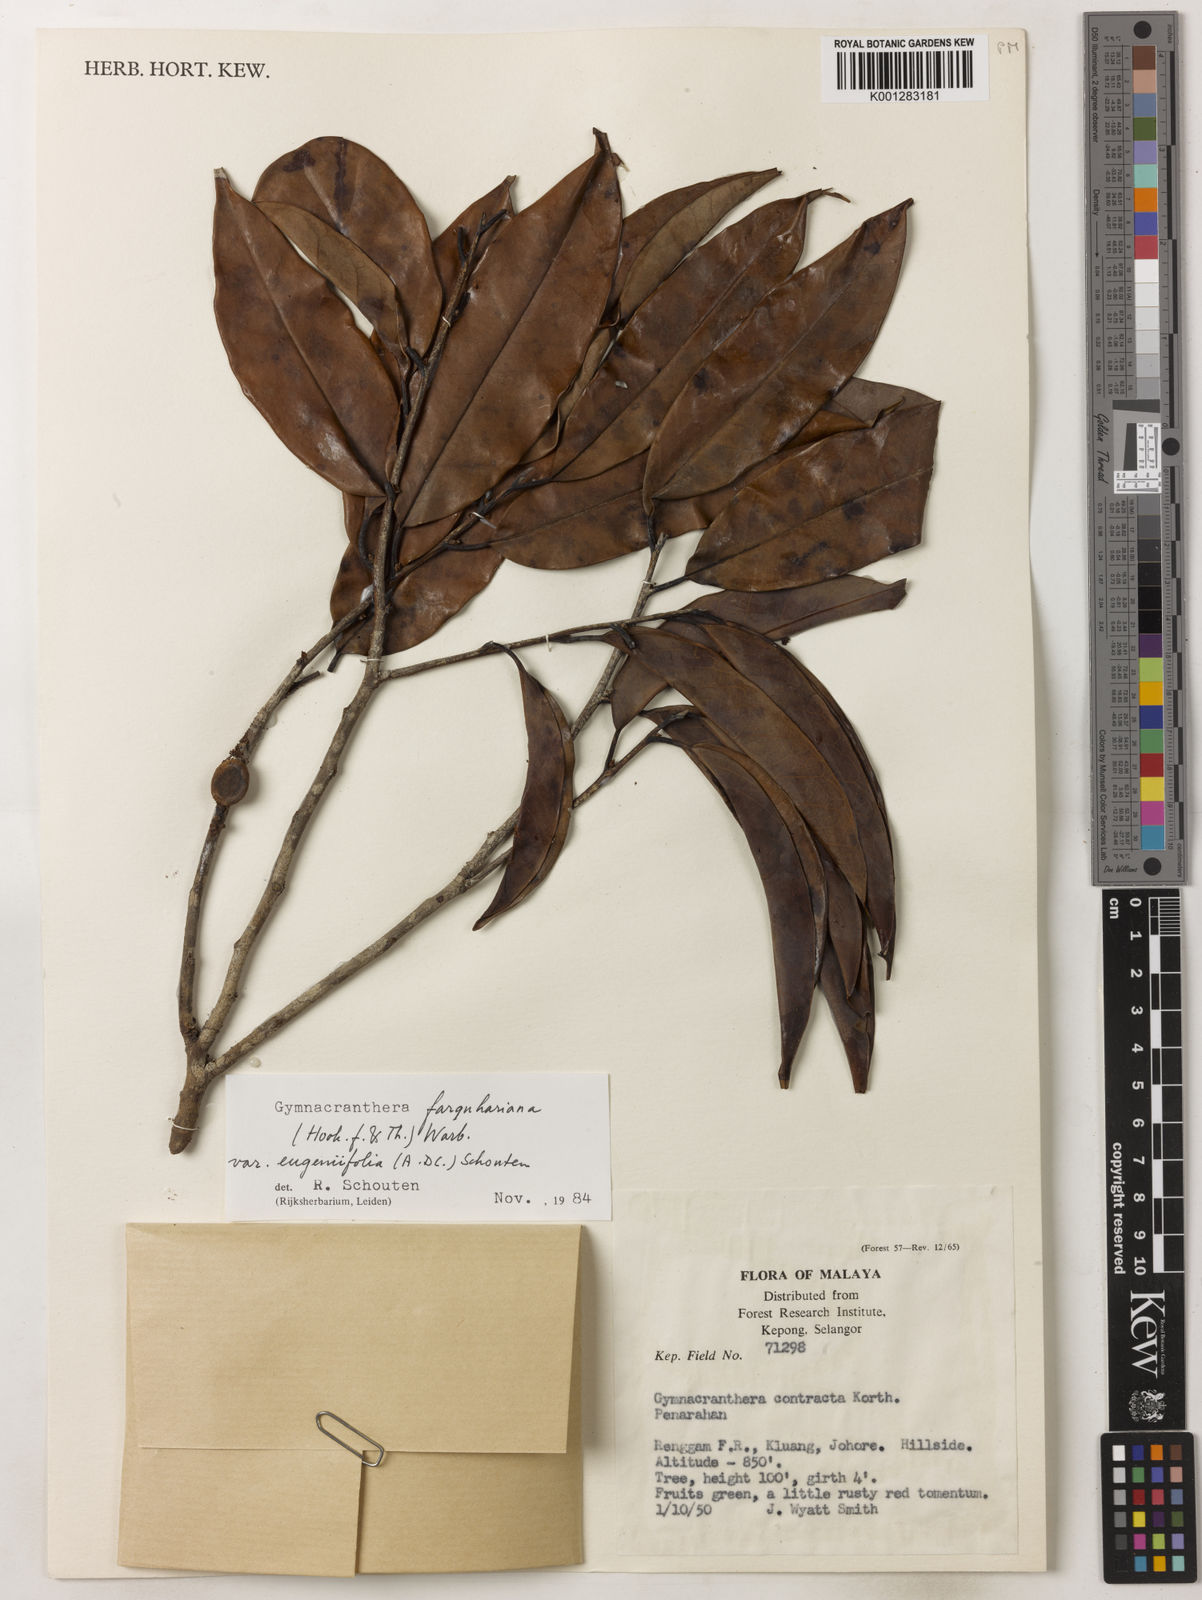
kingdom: Plantae
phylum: Tracheophyta
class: Magnoliopsida
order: Magnoliales
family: Myristicaceae
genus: Gymnacranthera
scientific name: Gymnacranthera farquhariana
